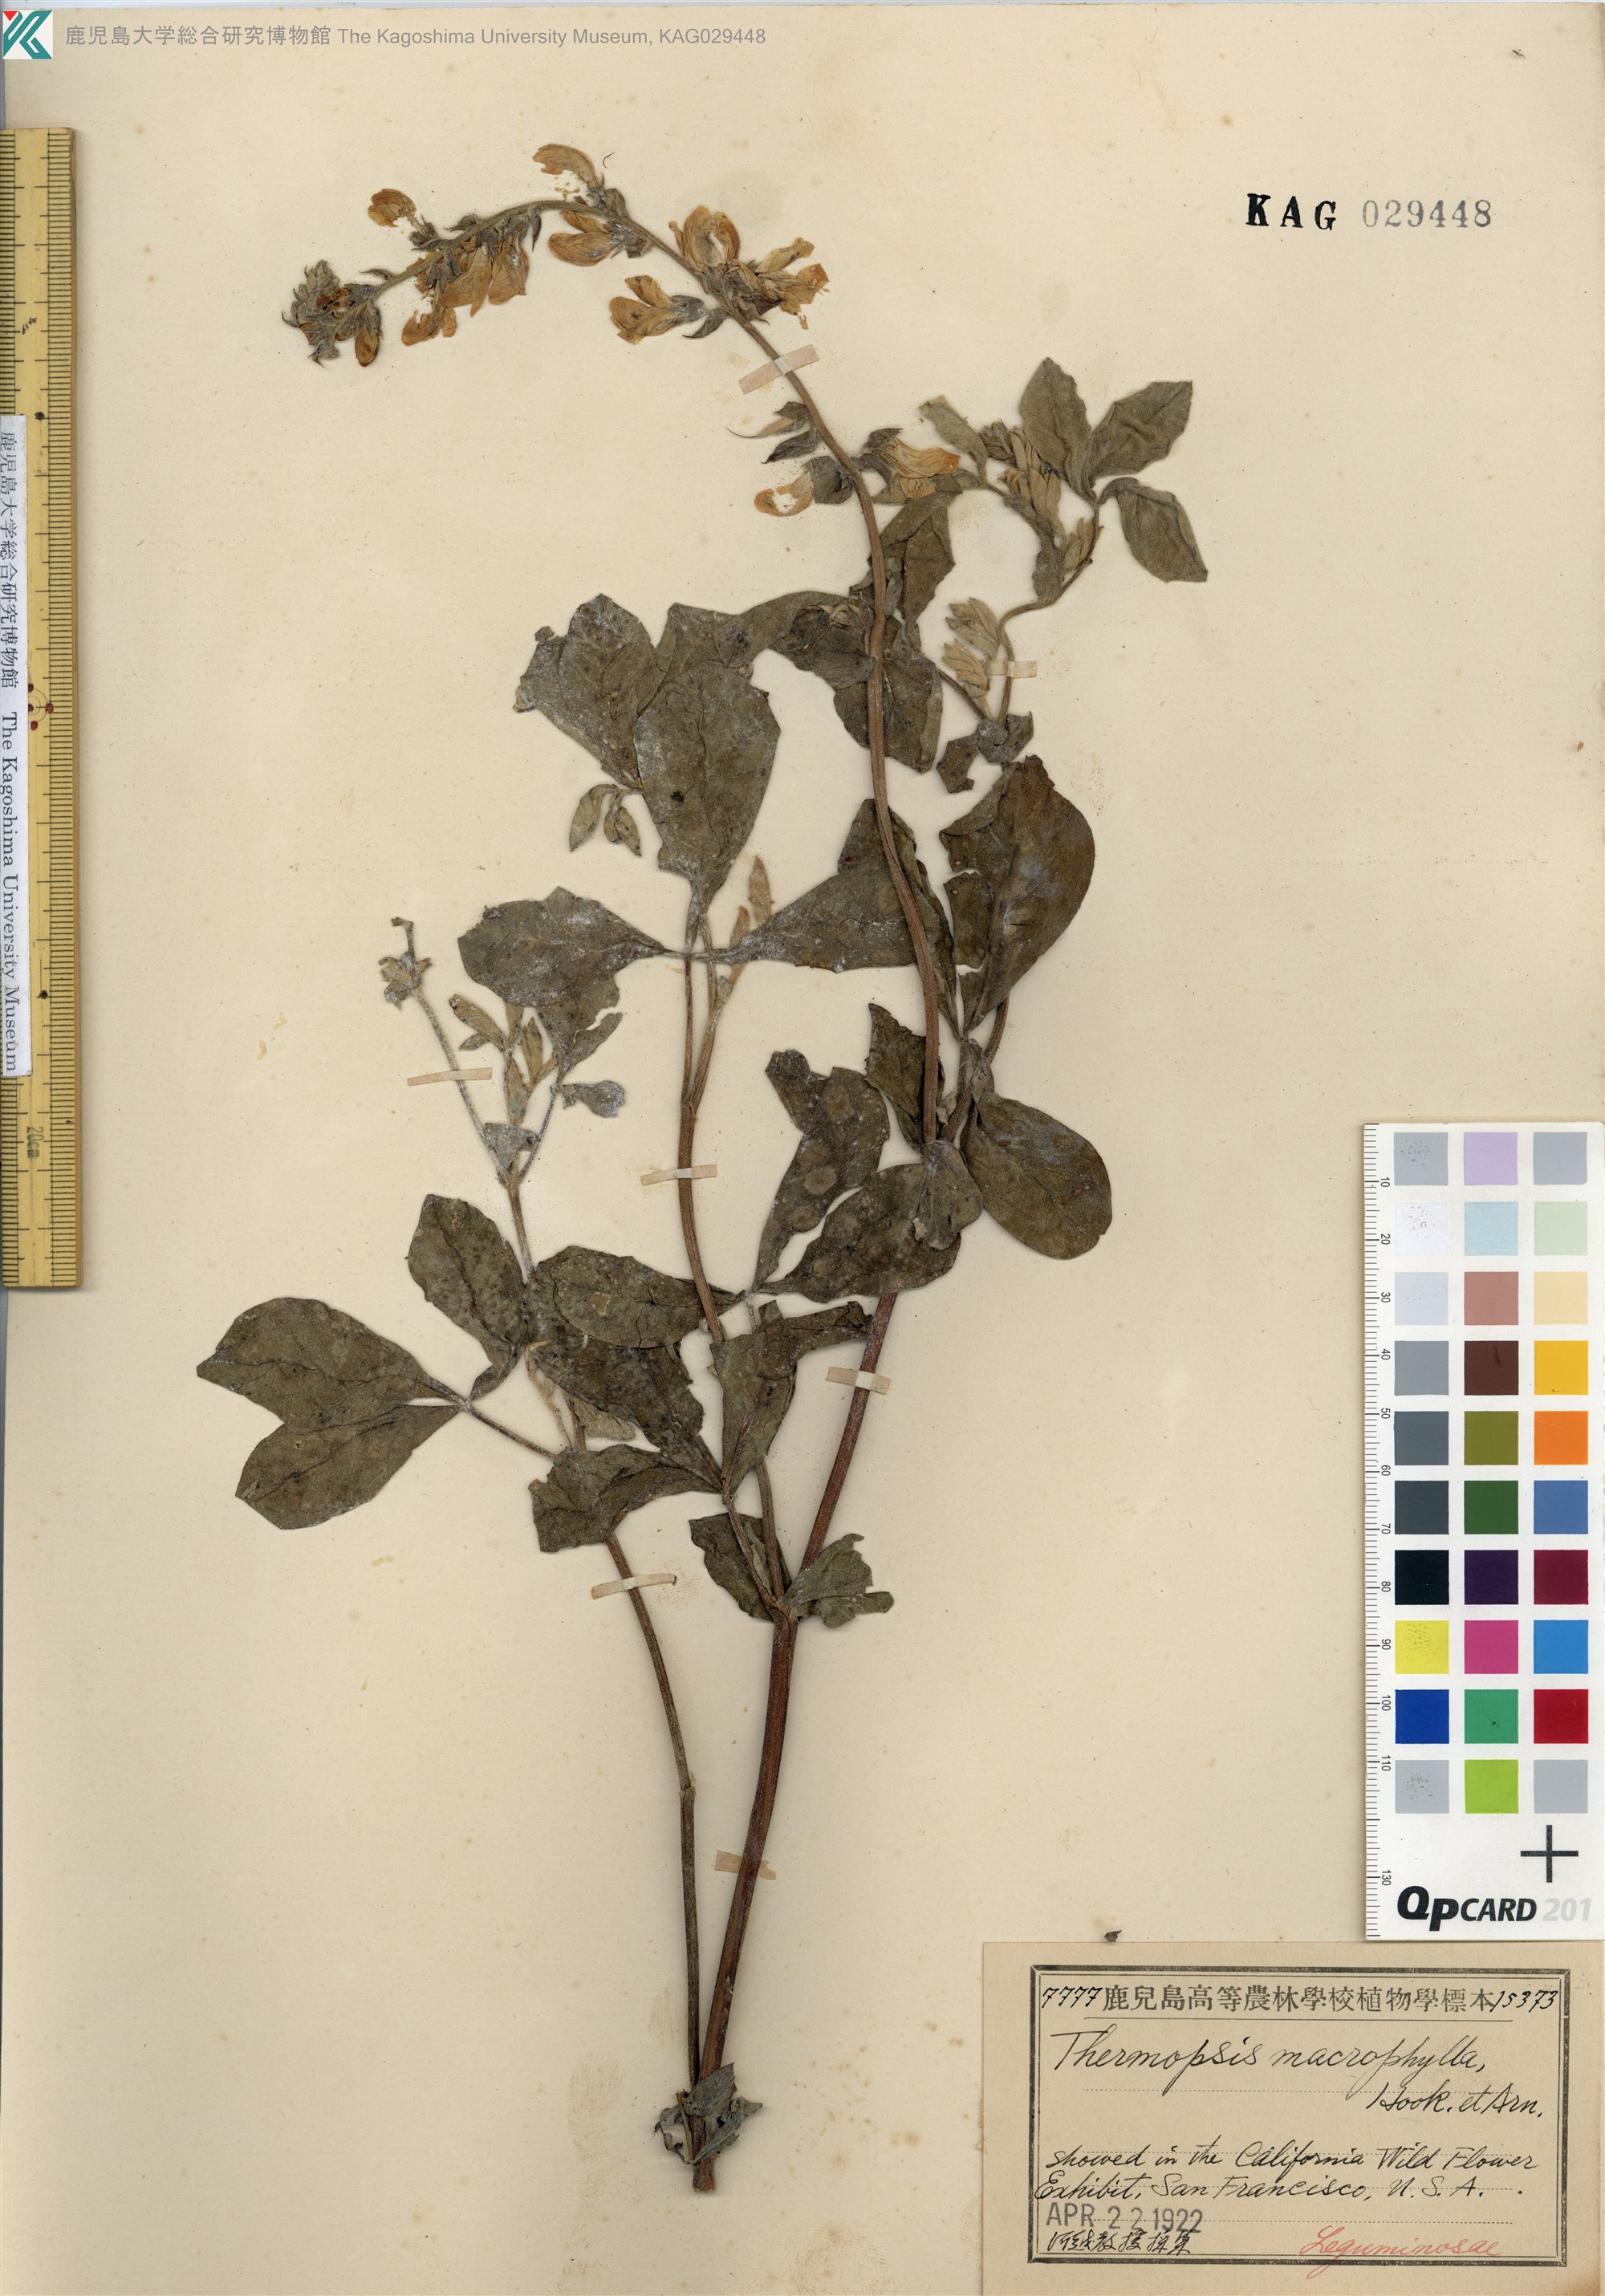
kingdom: Plantae
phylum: Tracheophyta
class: Magnoliopsida
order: Fabales
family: Fabaceae
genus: Thermopsis
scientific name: Thermopsis macrophylla
